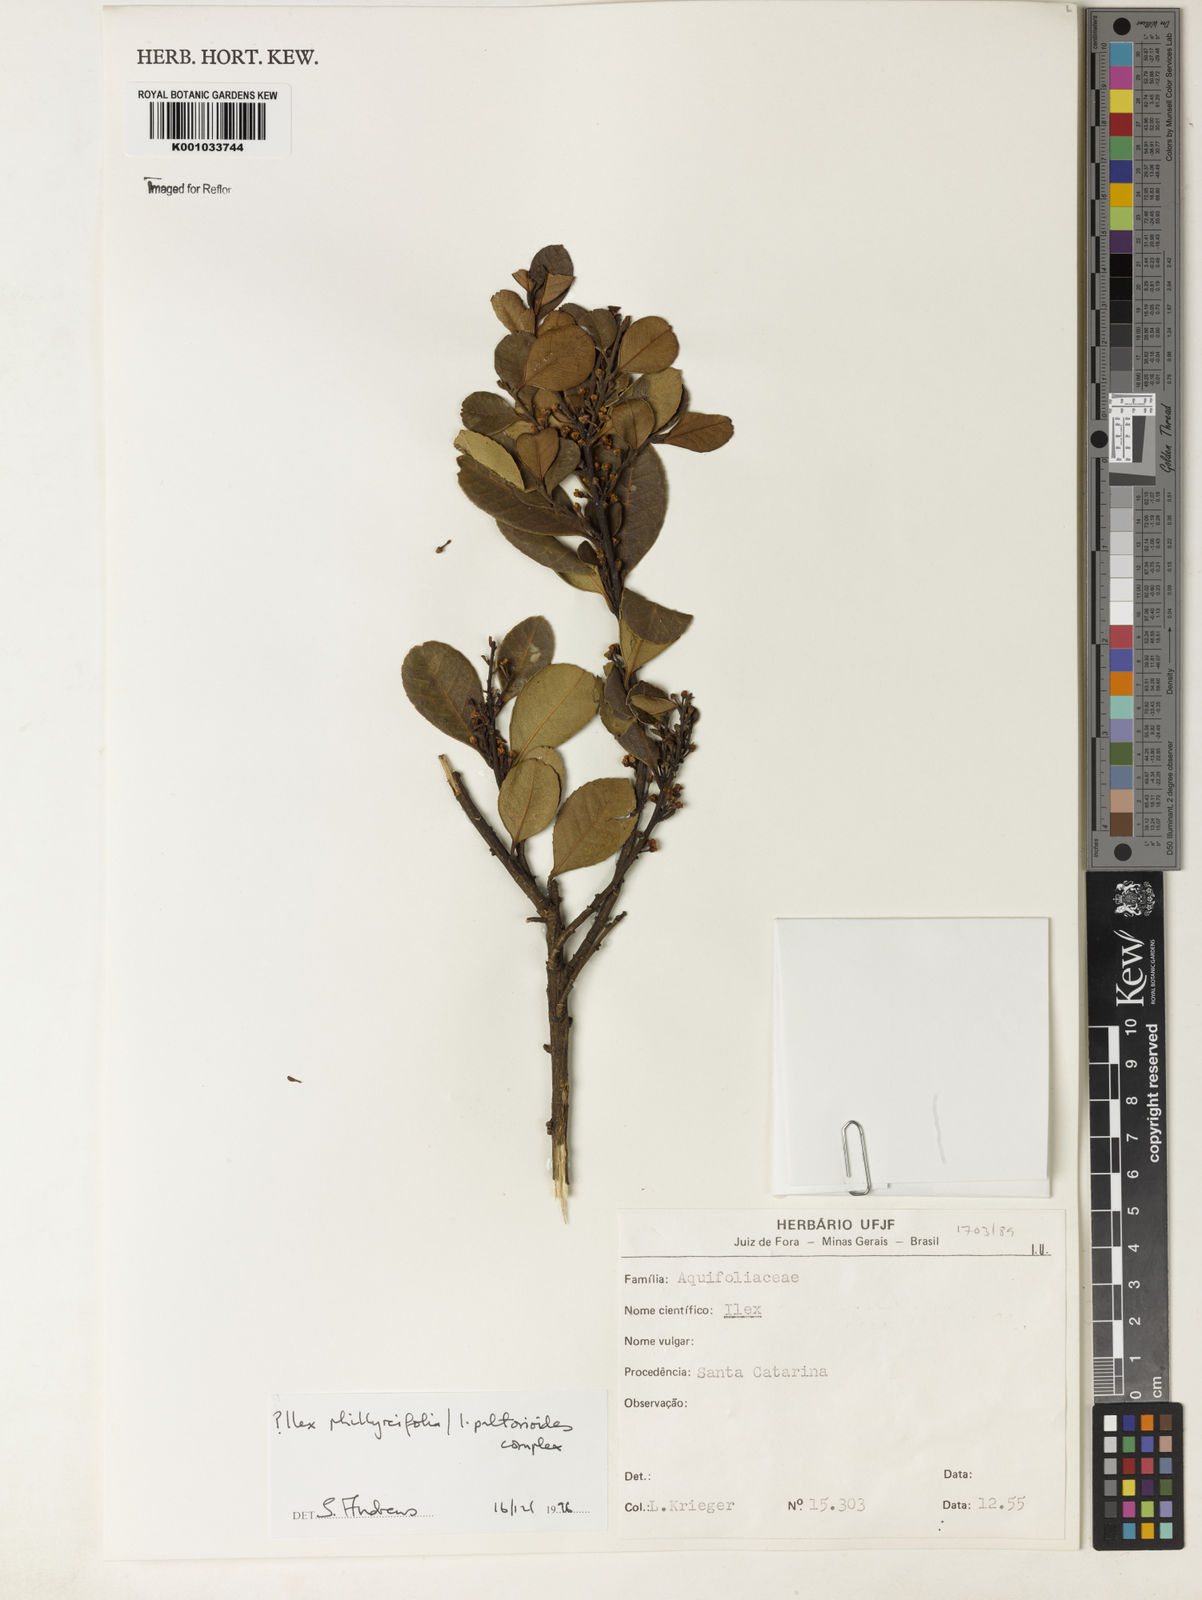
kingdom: Plantae
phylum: Tracheophyta
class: Magnoliopsida
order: Aquifoliales
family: Aquifoliaceae
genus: Ilex
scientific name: Ilex
